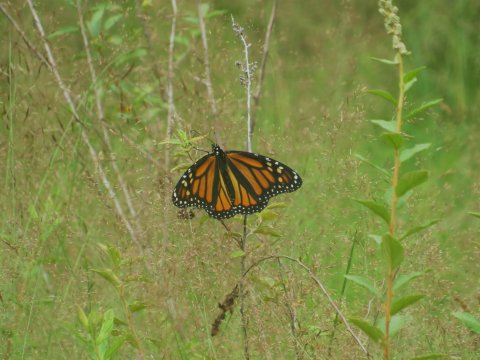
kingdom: Animalia
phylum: Arthropoda
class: Insecta
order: Lepidoptera
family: Nymphalidae
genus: Danaus
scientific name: Danaus plexippus
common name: Monarch
